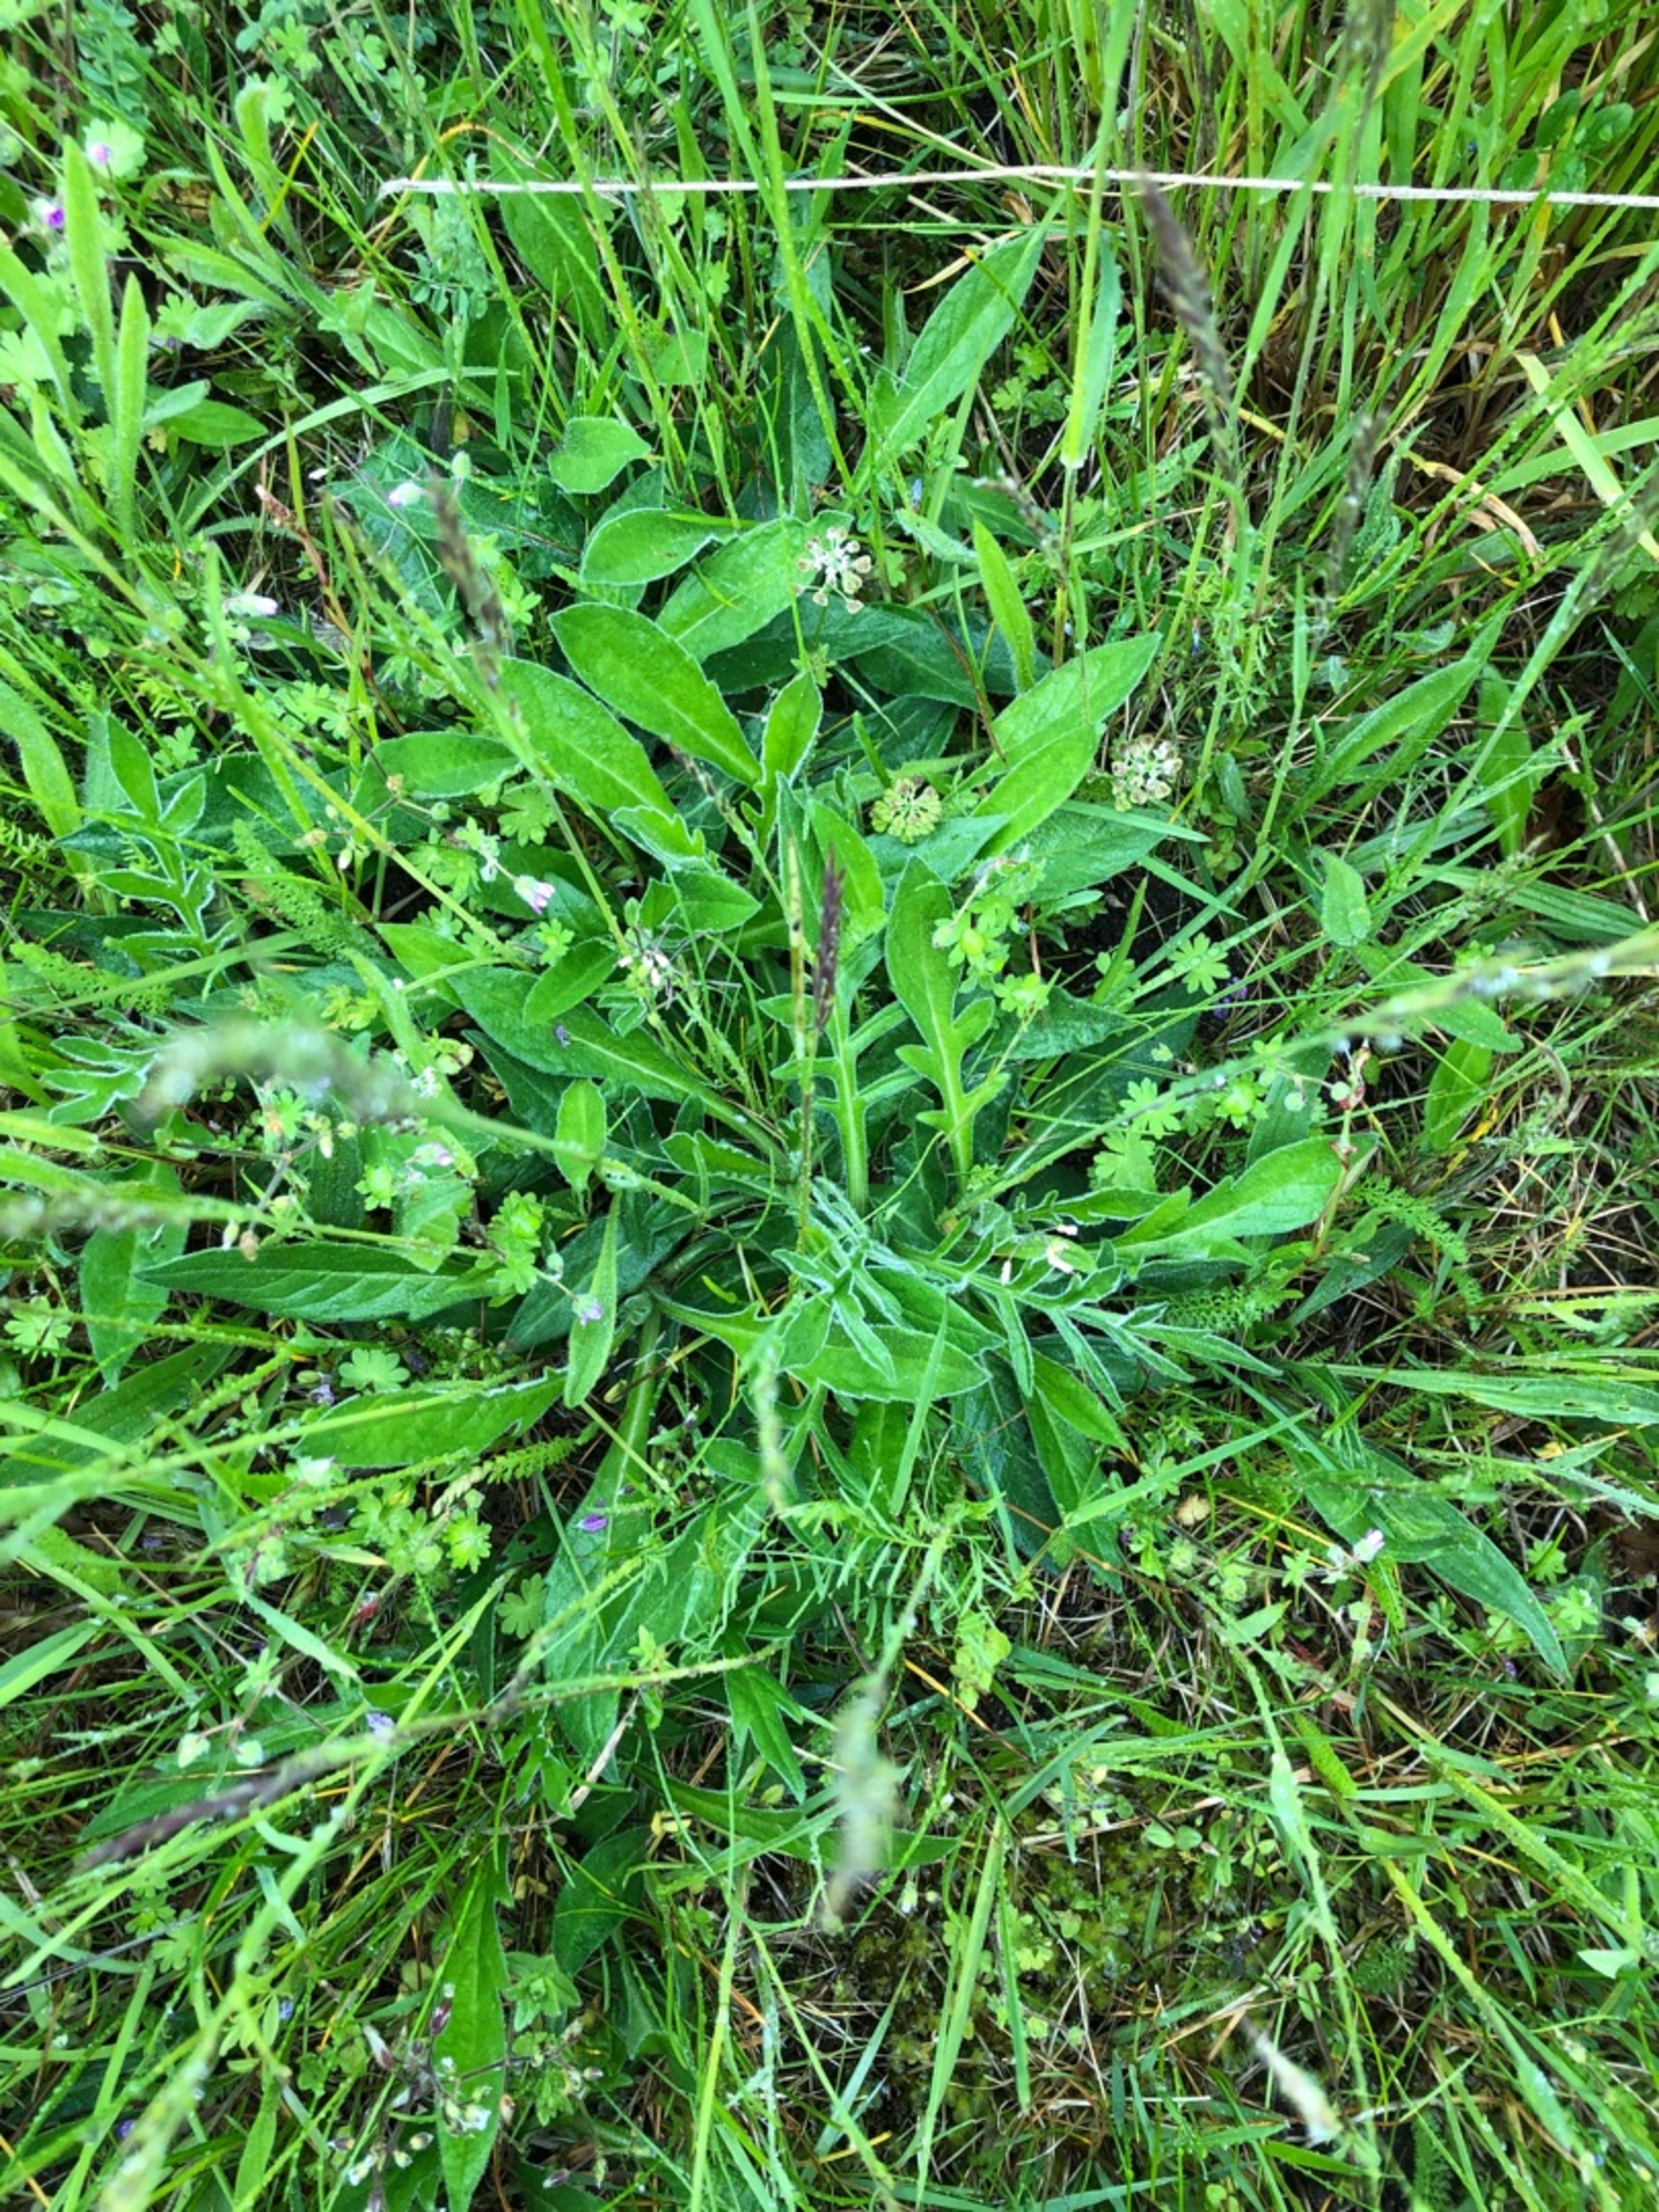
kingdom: Plantae
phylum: Tracheophyta
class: Magnoliopsida
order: Dipsacales
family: Caprifoliaceae
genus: Knautia
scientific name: Knautia arvensis
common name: Blåhat
